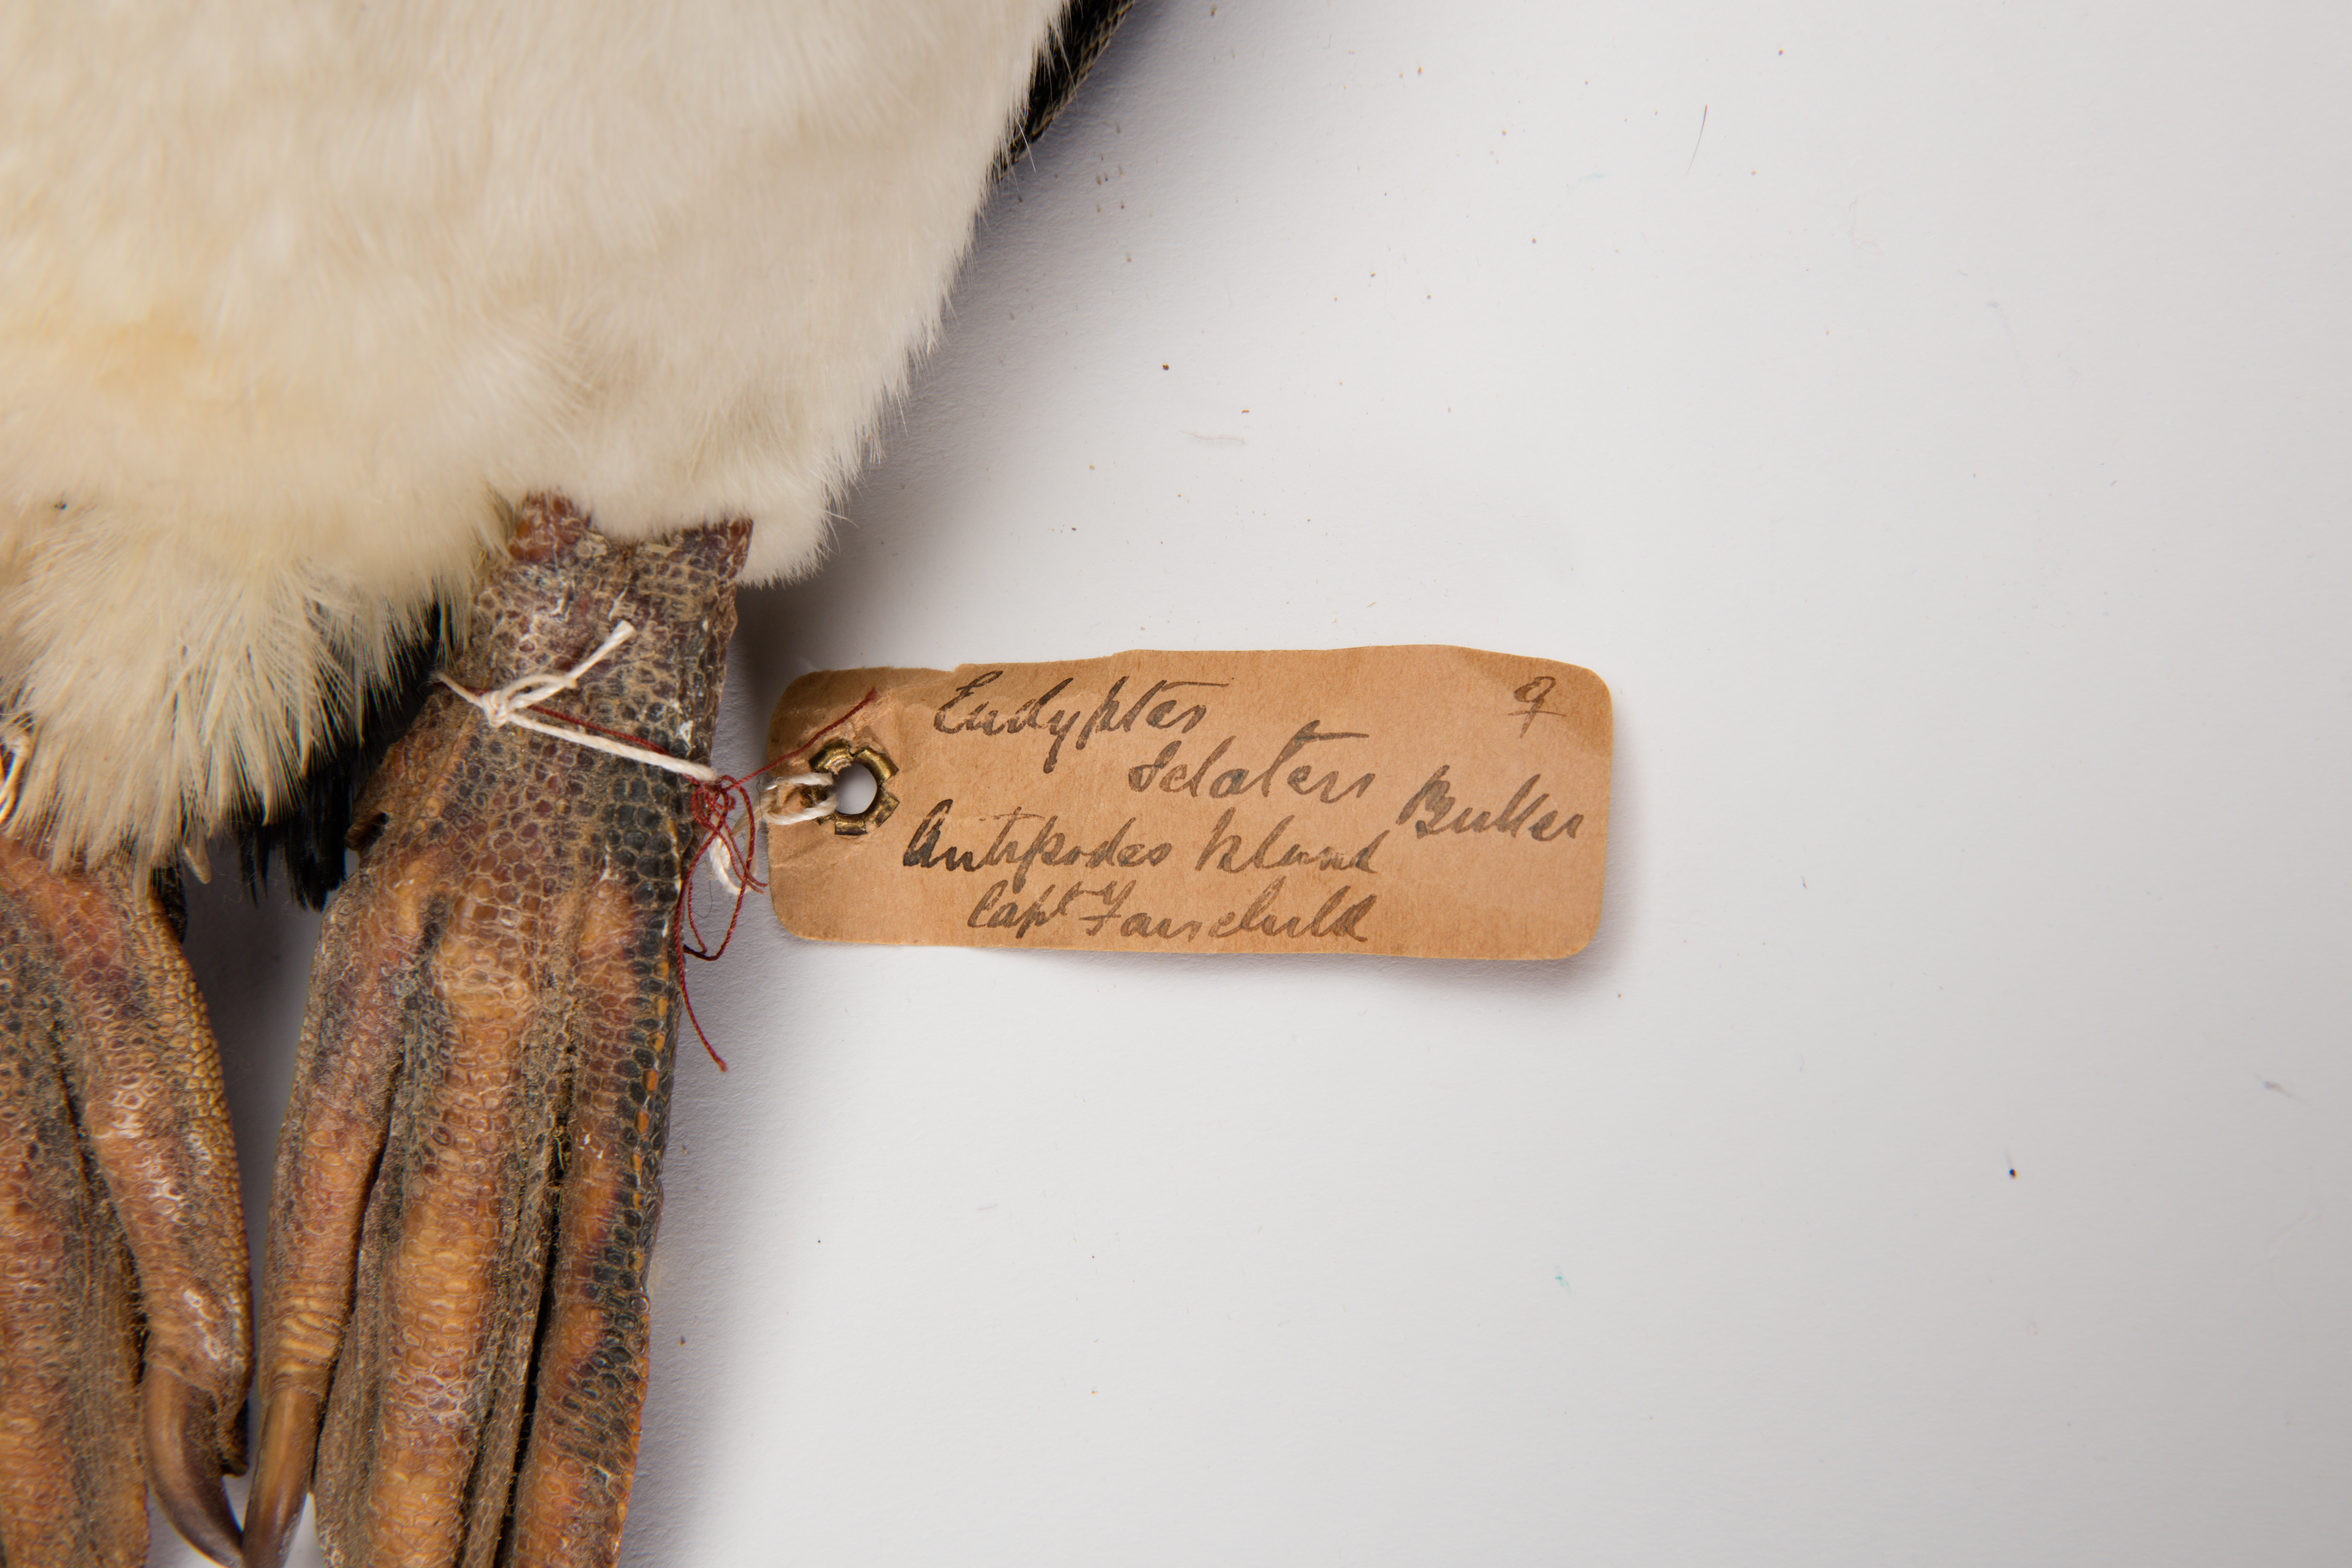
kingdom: Animalia
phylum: Chordata
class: Aves
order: Sphenisciformes
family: Spheniscidae
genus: Eudyptes
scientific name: Eudyptes sclateri
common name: Erect-crested penguin
